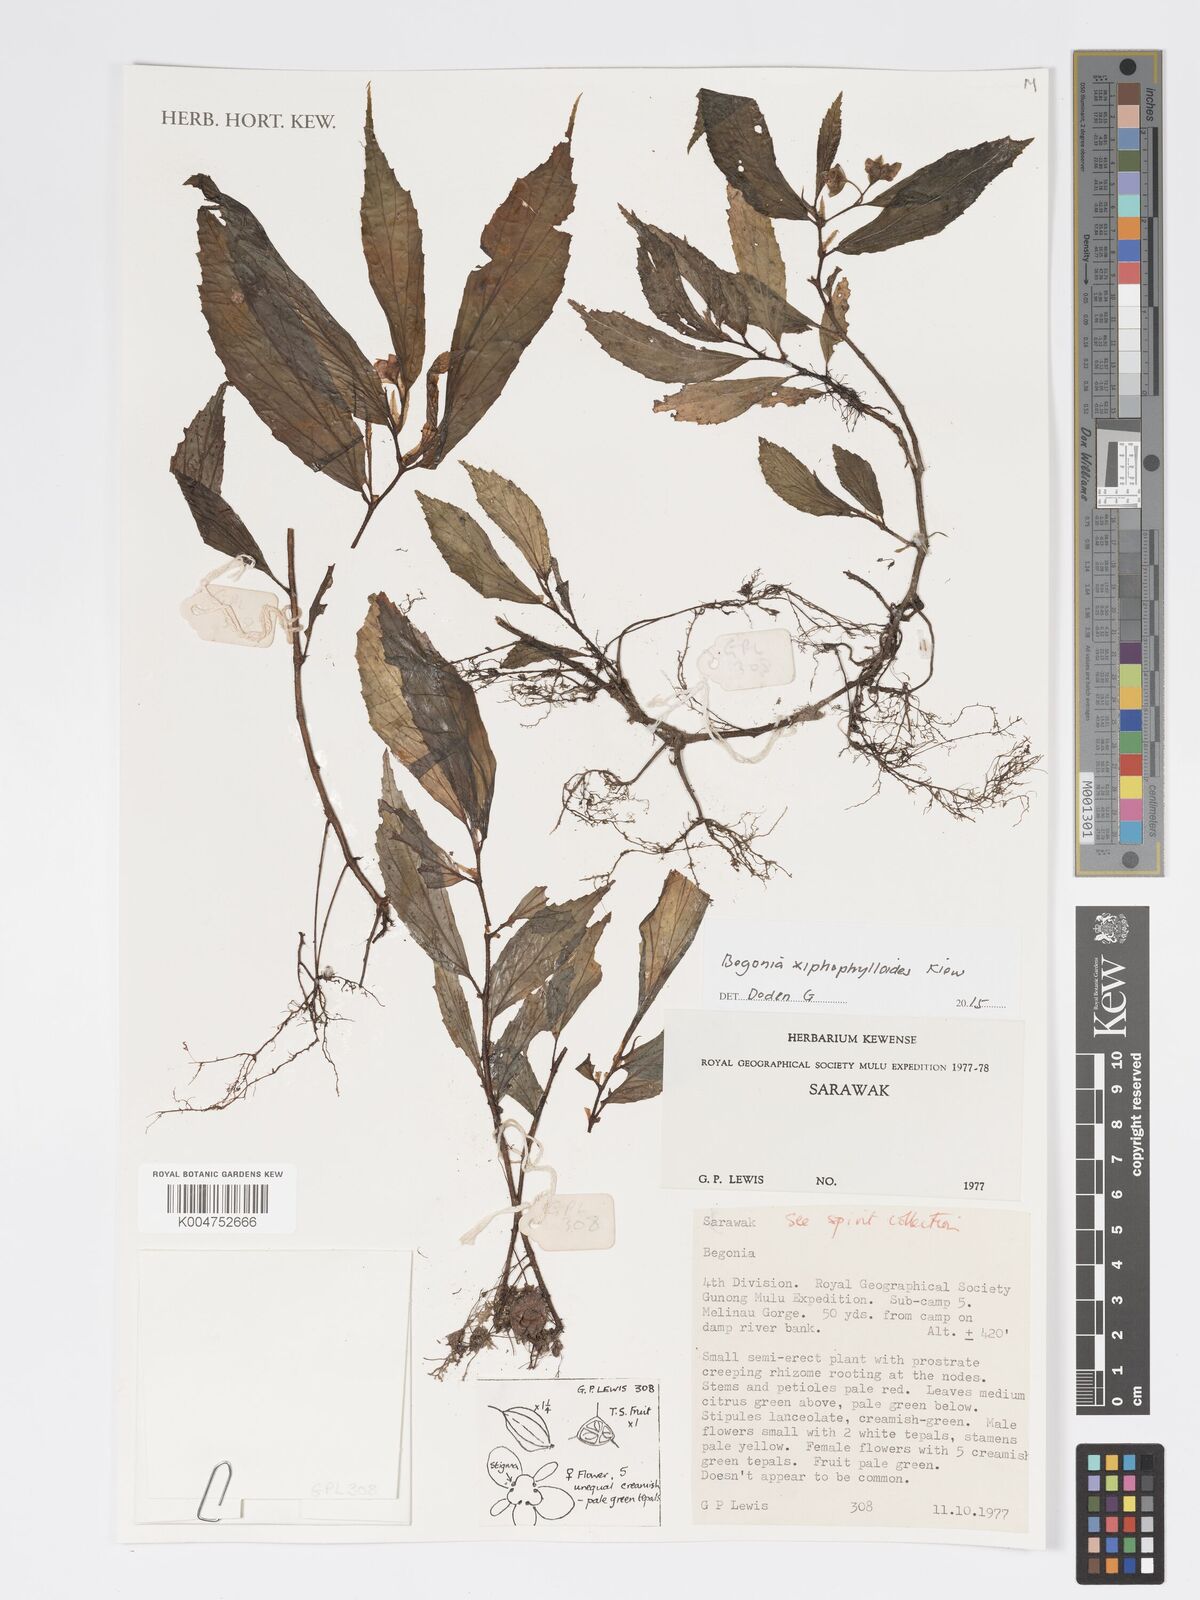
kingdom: Plantae
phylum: Tracheophyta
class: Magnoliopsida
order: Cucurbitales
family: Begoniaceae
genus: Begonia
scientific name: Begonia xiphophylloides
